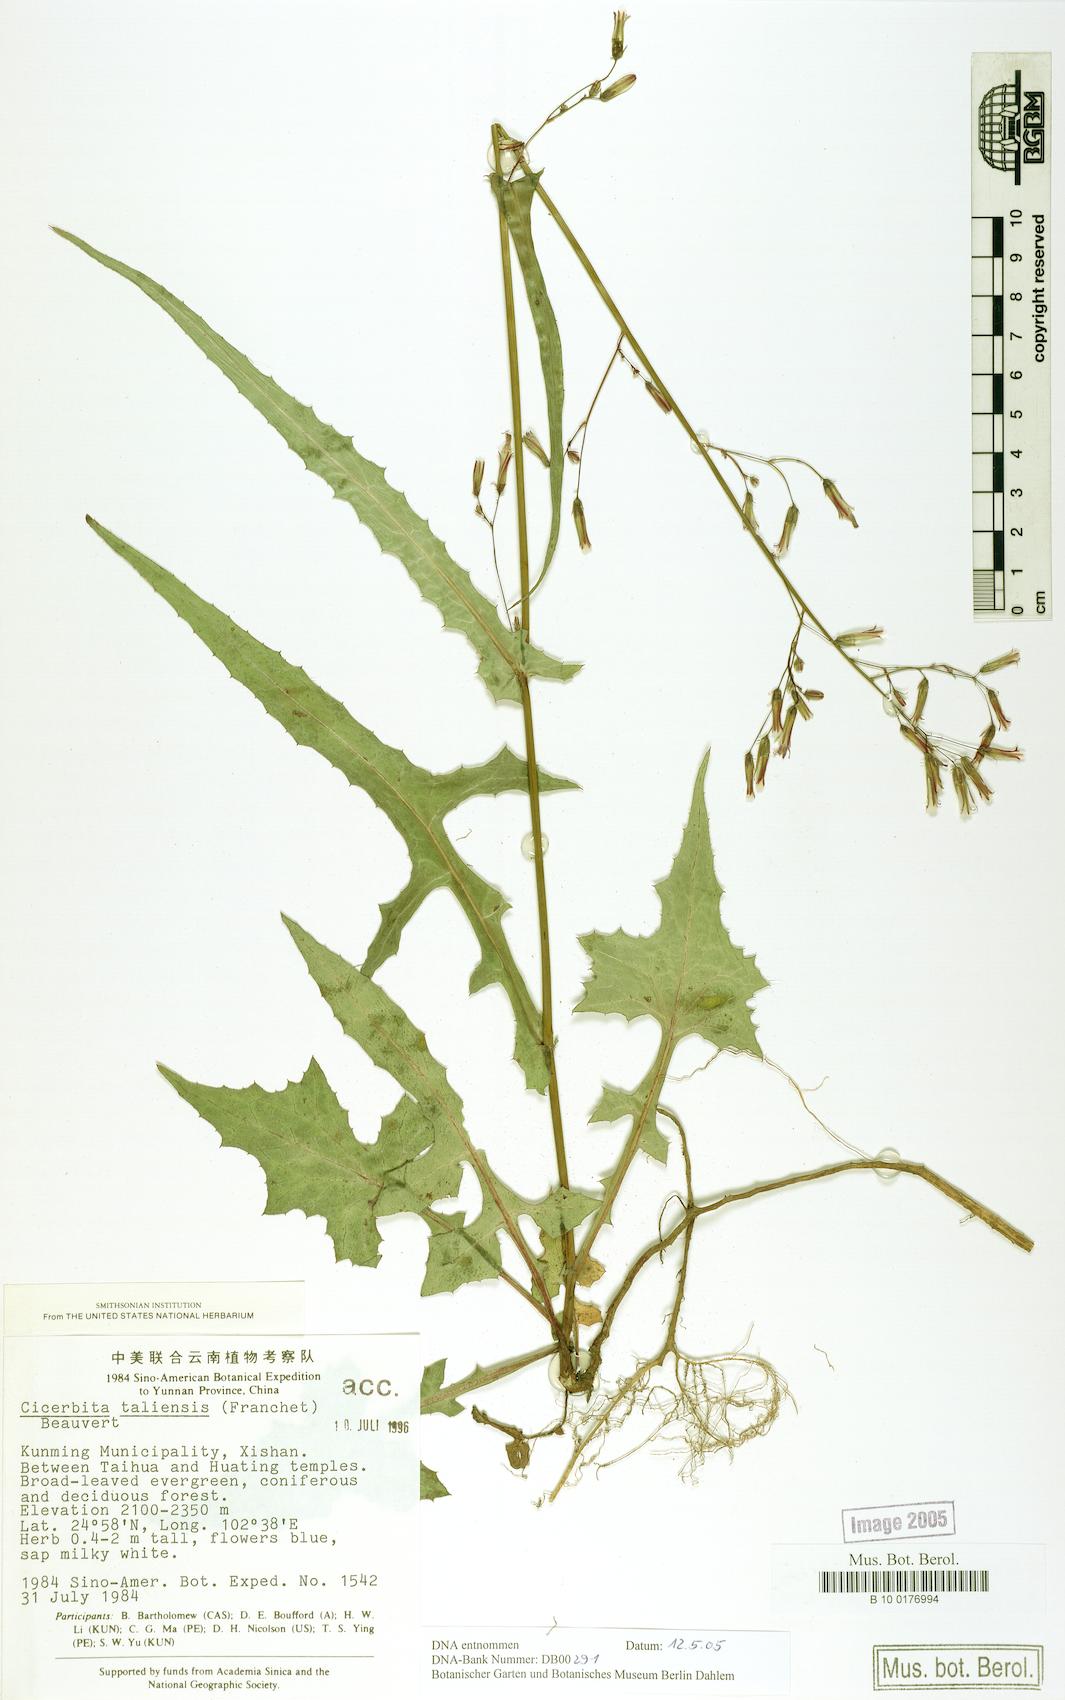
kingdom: Plantae
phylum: Tracheophyta
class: Magnoliopsida
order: Asterales
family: Asteraceae
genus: Melanoseris
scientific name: Melanoseris graciliflora
